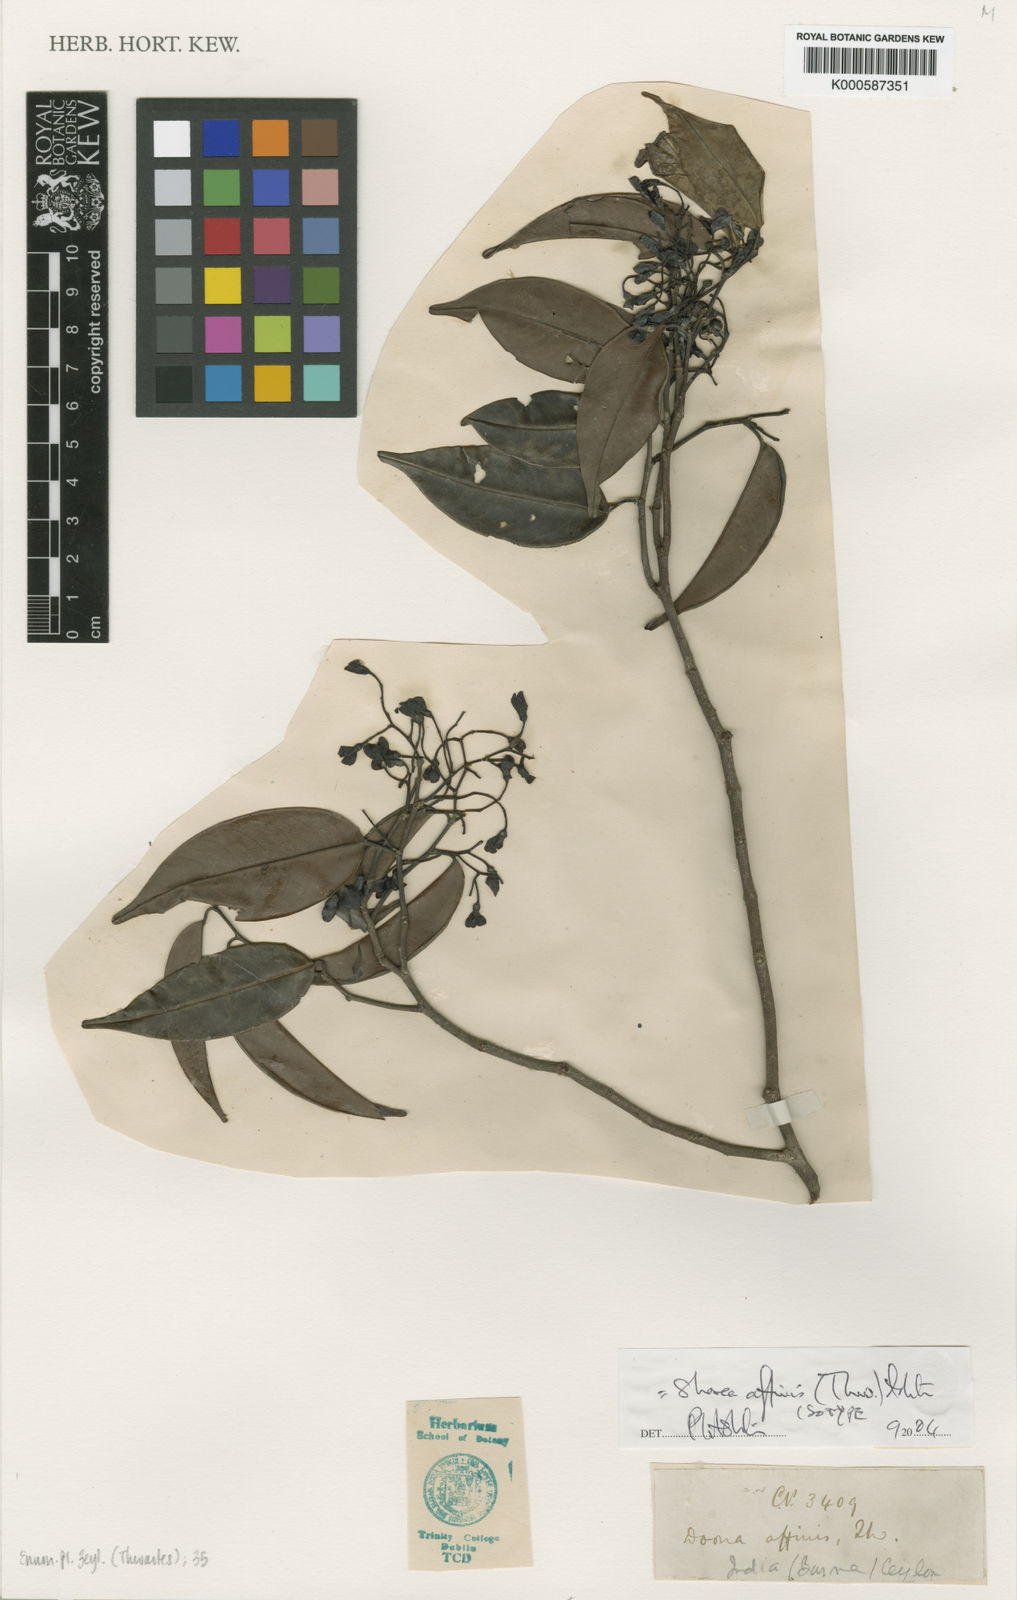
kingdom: Plantae
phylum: Tracheophyta
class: Magnoliopsida
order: Malvales
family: Dipterocarpaceae
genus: Doona
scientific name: Doona affinis
